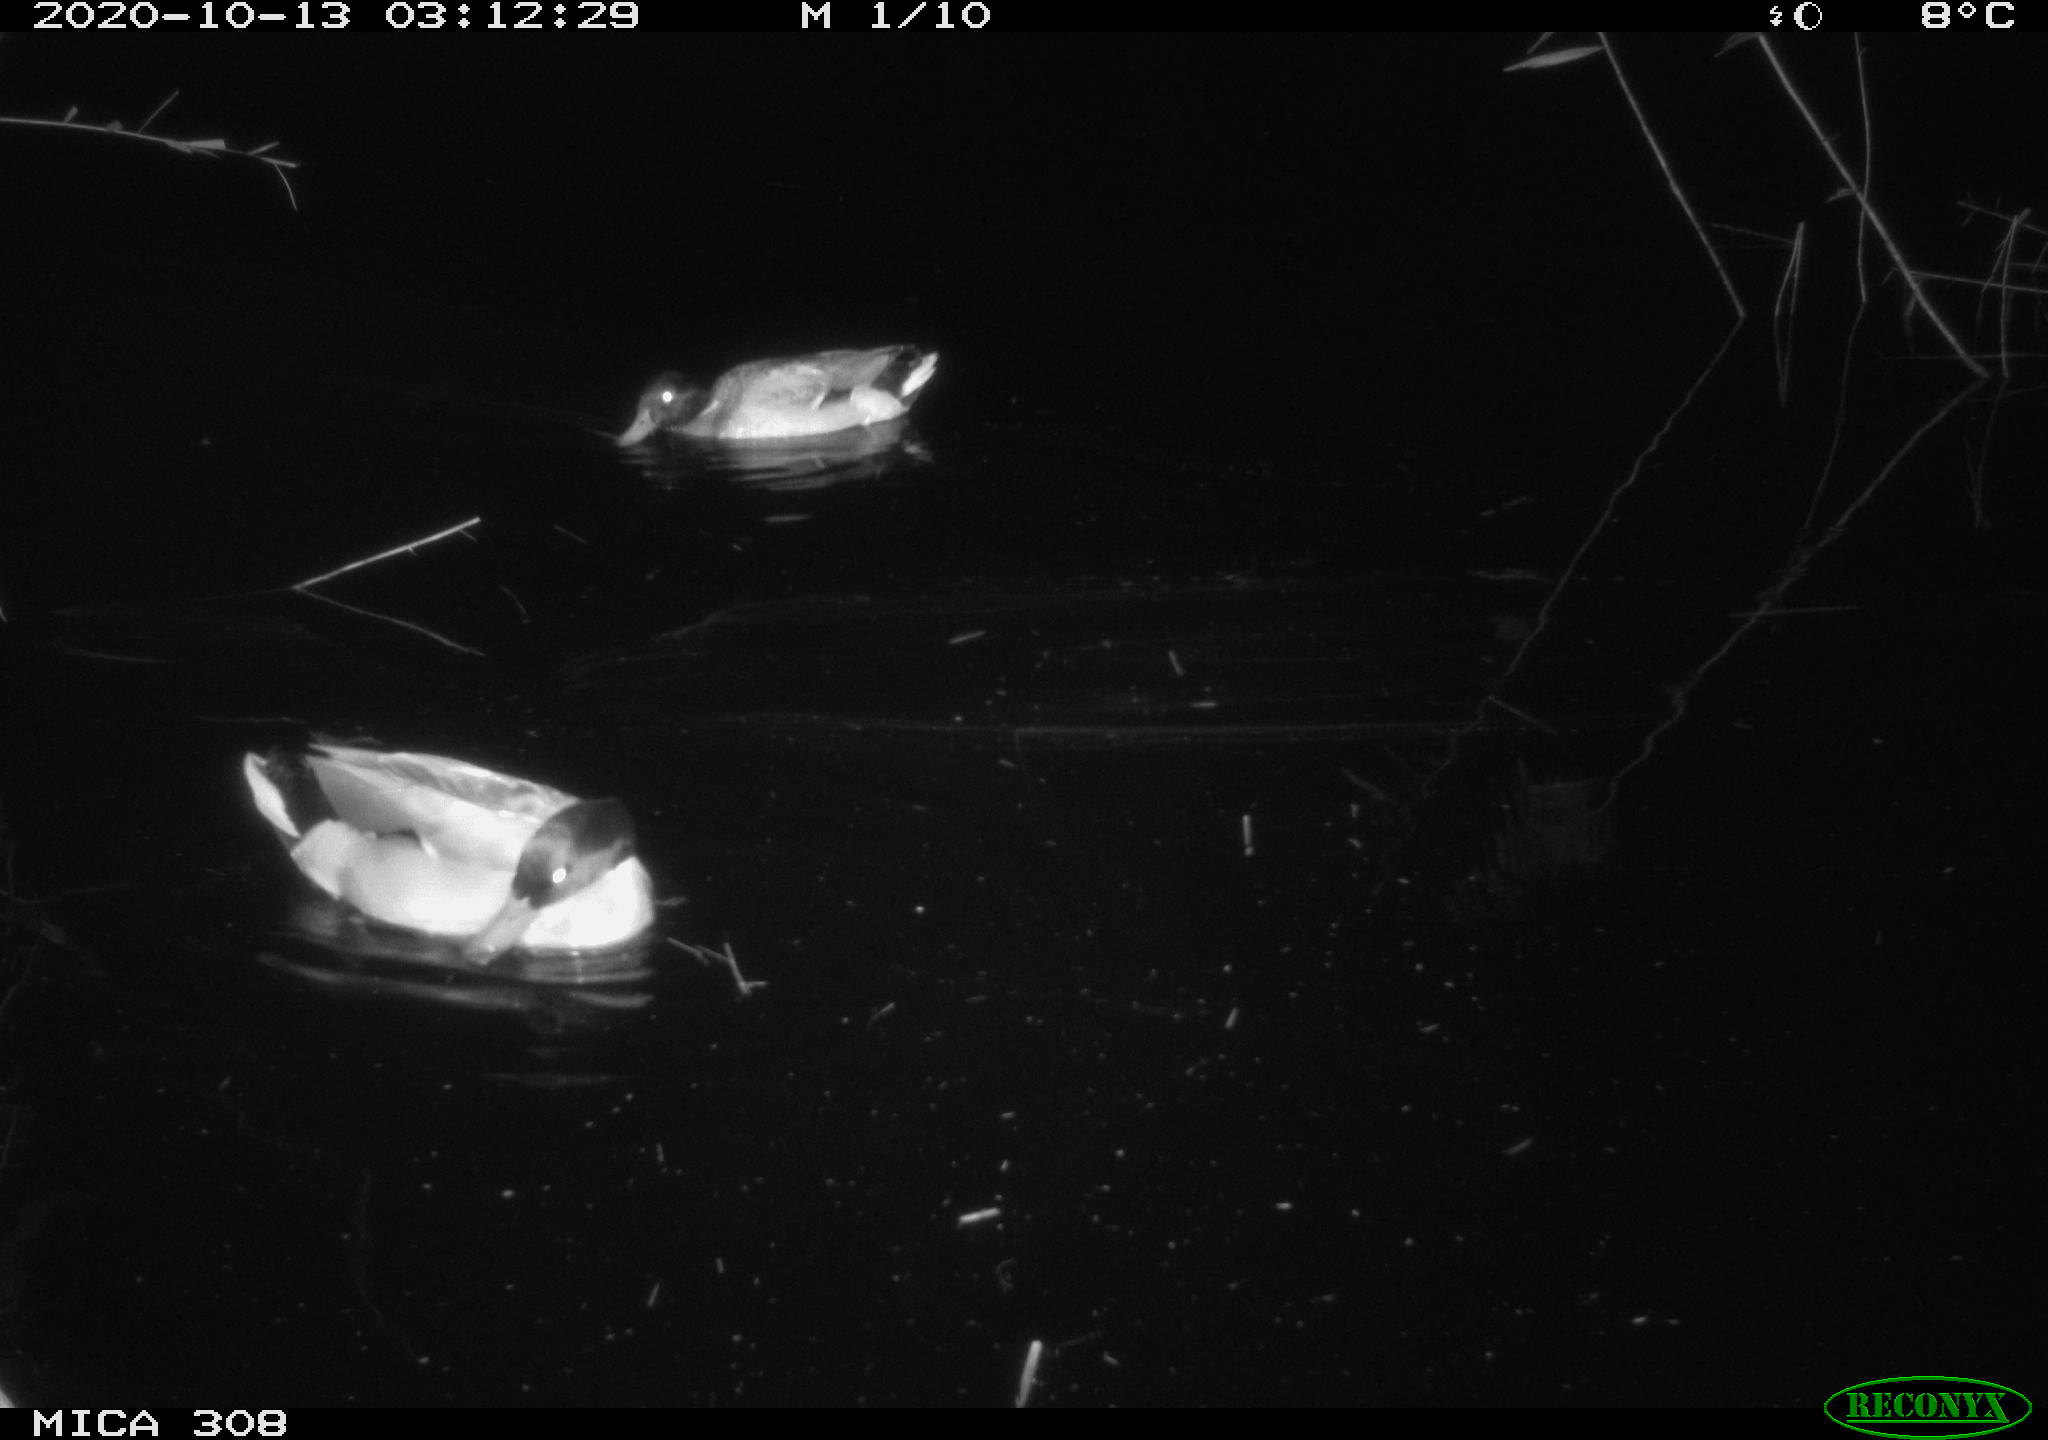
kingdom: Animalia
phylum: Chordata
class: Aves
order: Anseriformes
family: Anatidae
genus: Anas
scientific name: Anas platyrhynchos
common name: Mallard
